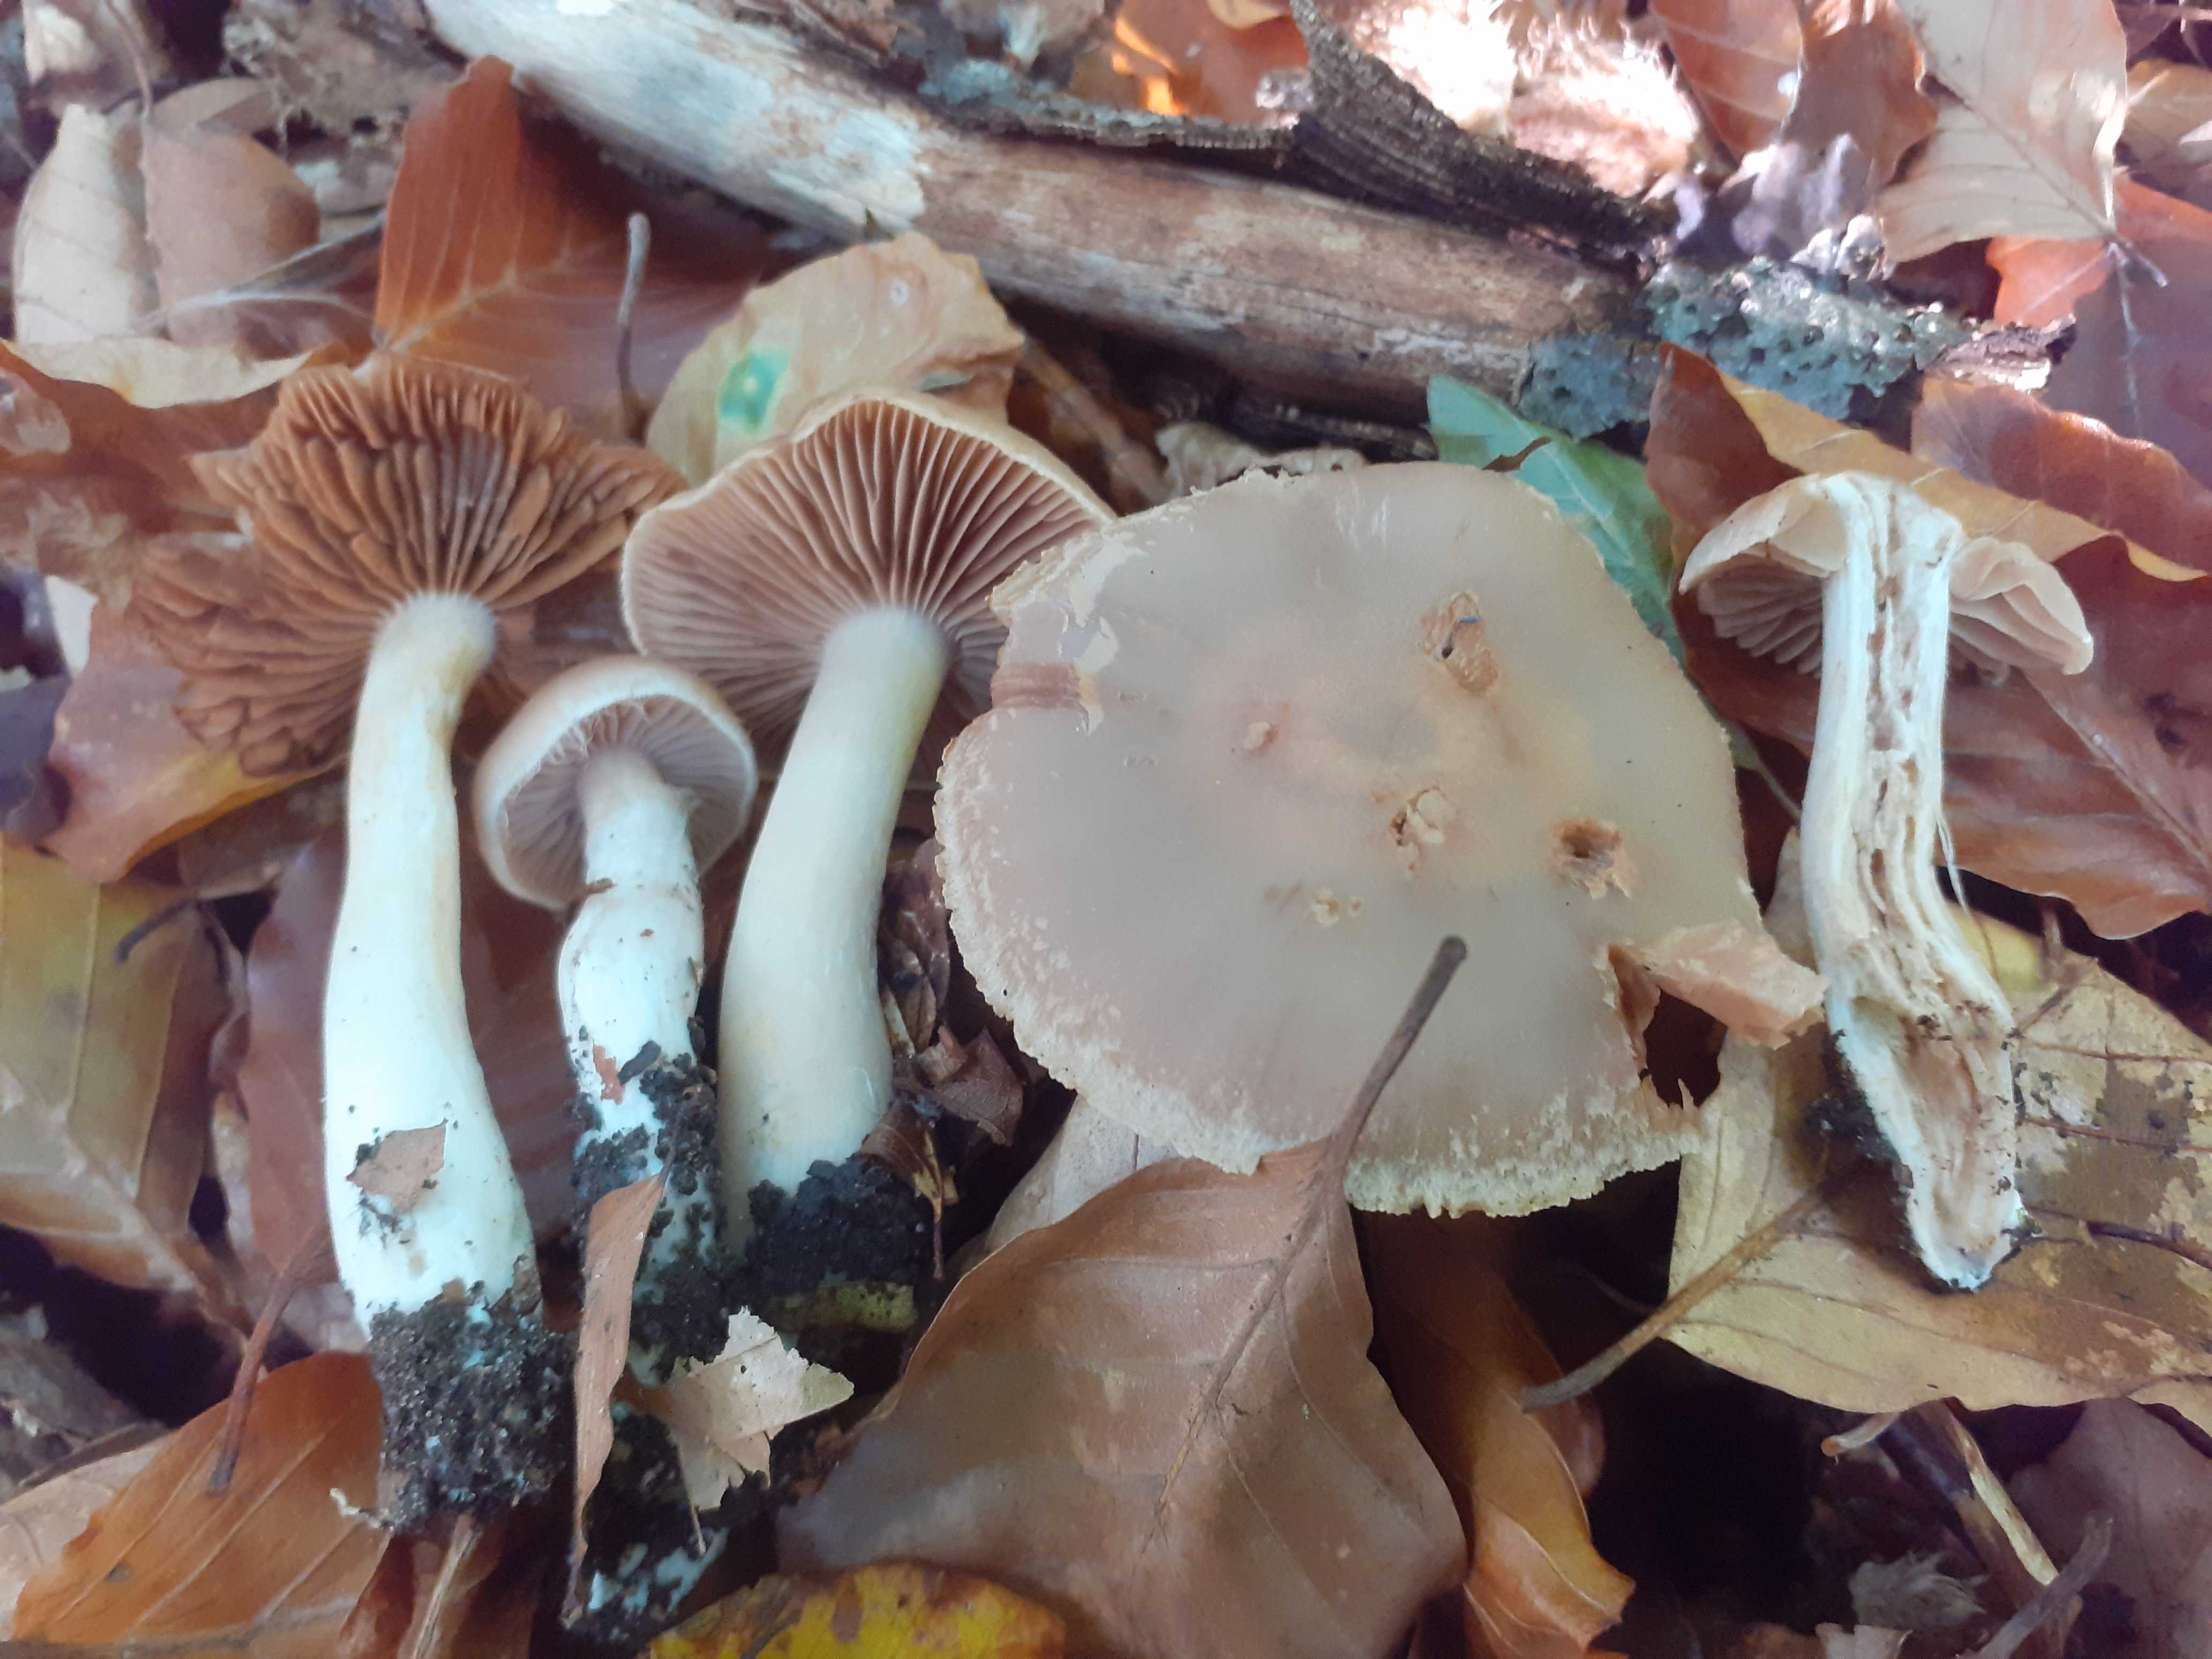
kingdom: Fungi
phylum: Basidiomycota
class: Agaricomycetes
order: Agaricales
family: Cortinariaceae
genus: Cortinarius
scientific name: Cortinarius iners
